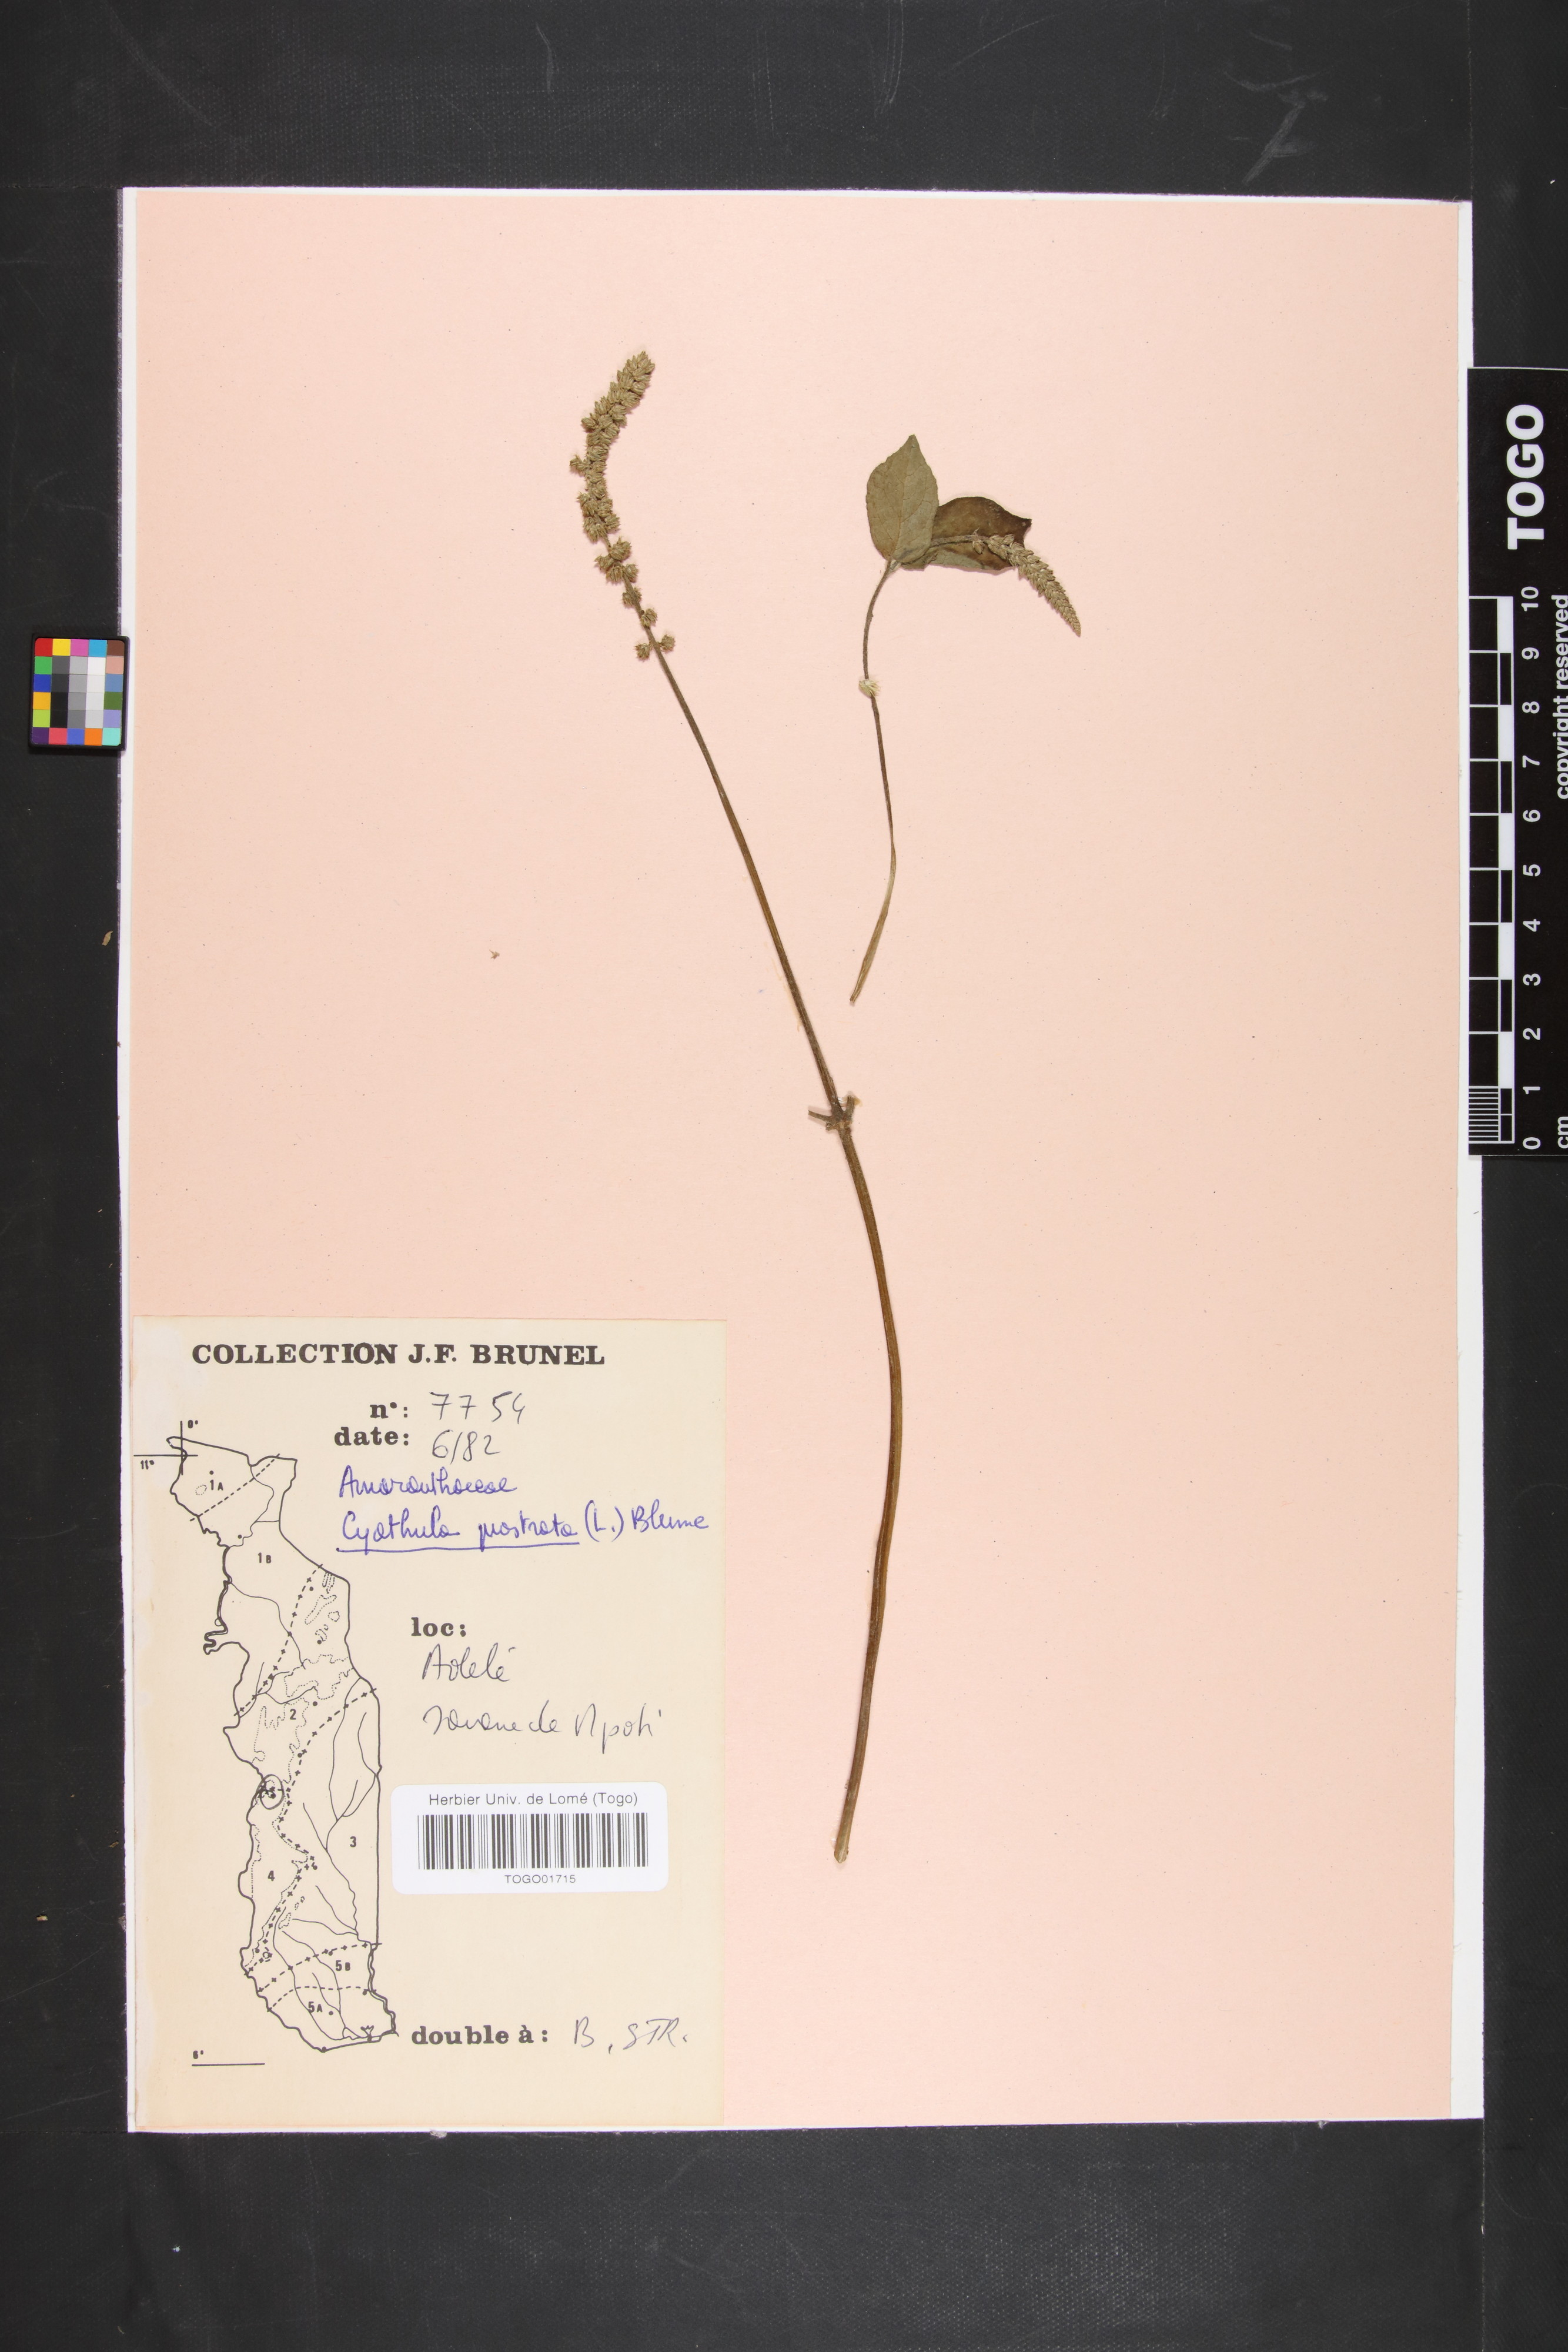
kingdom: Plantae
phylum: Tracheophyta
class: Magnoliopsida
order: Caryophyllales
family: Amaranthaceae
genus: Cyathula
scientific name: Cyathula prostrata
